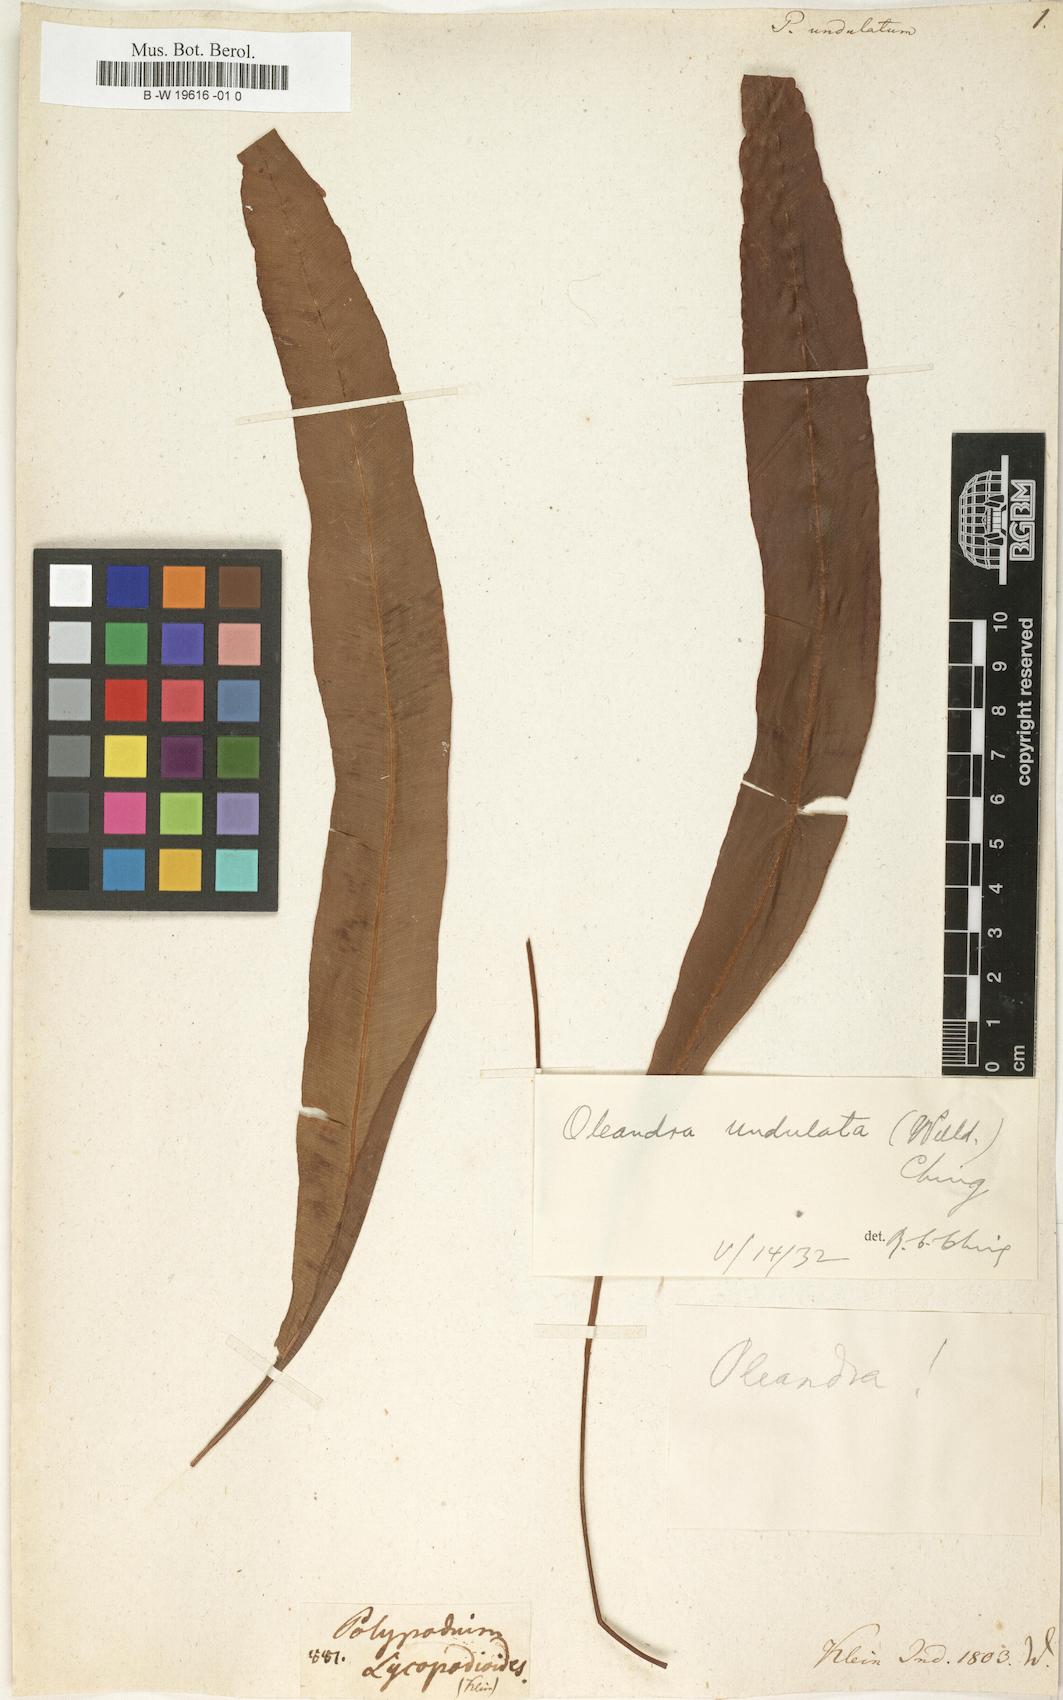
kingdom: Plantae
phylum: Tracheophyta
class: Polypodiopsida
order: Polypodiales
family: Oleandraceae
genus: Oleandra
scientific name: Oleandra undulata
